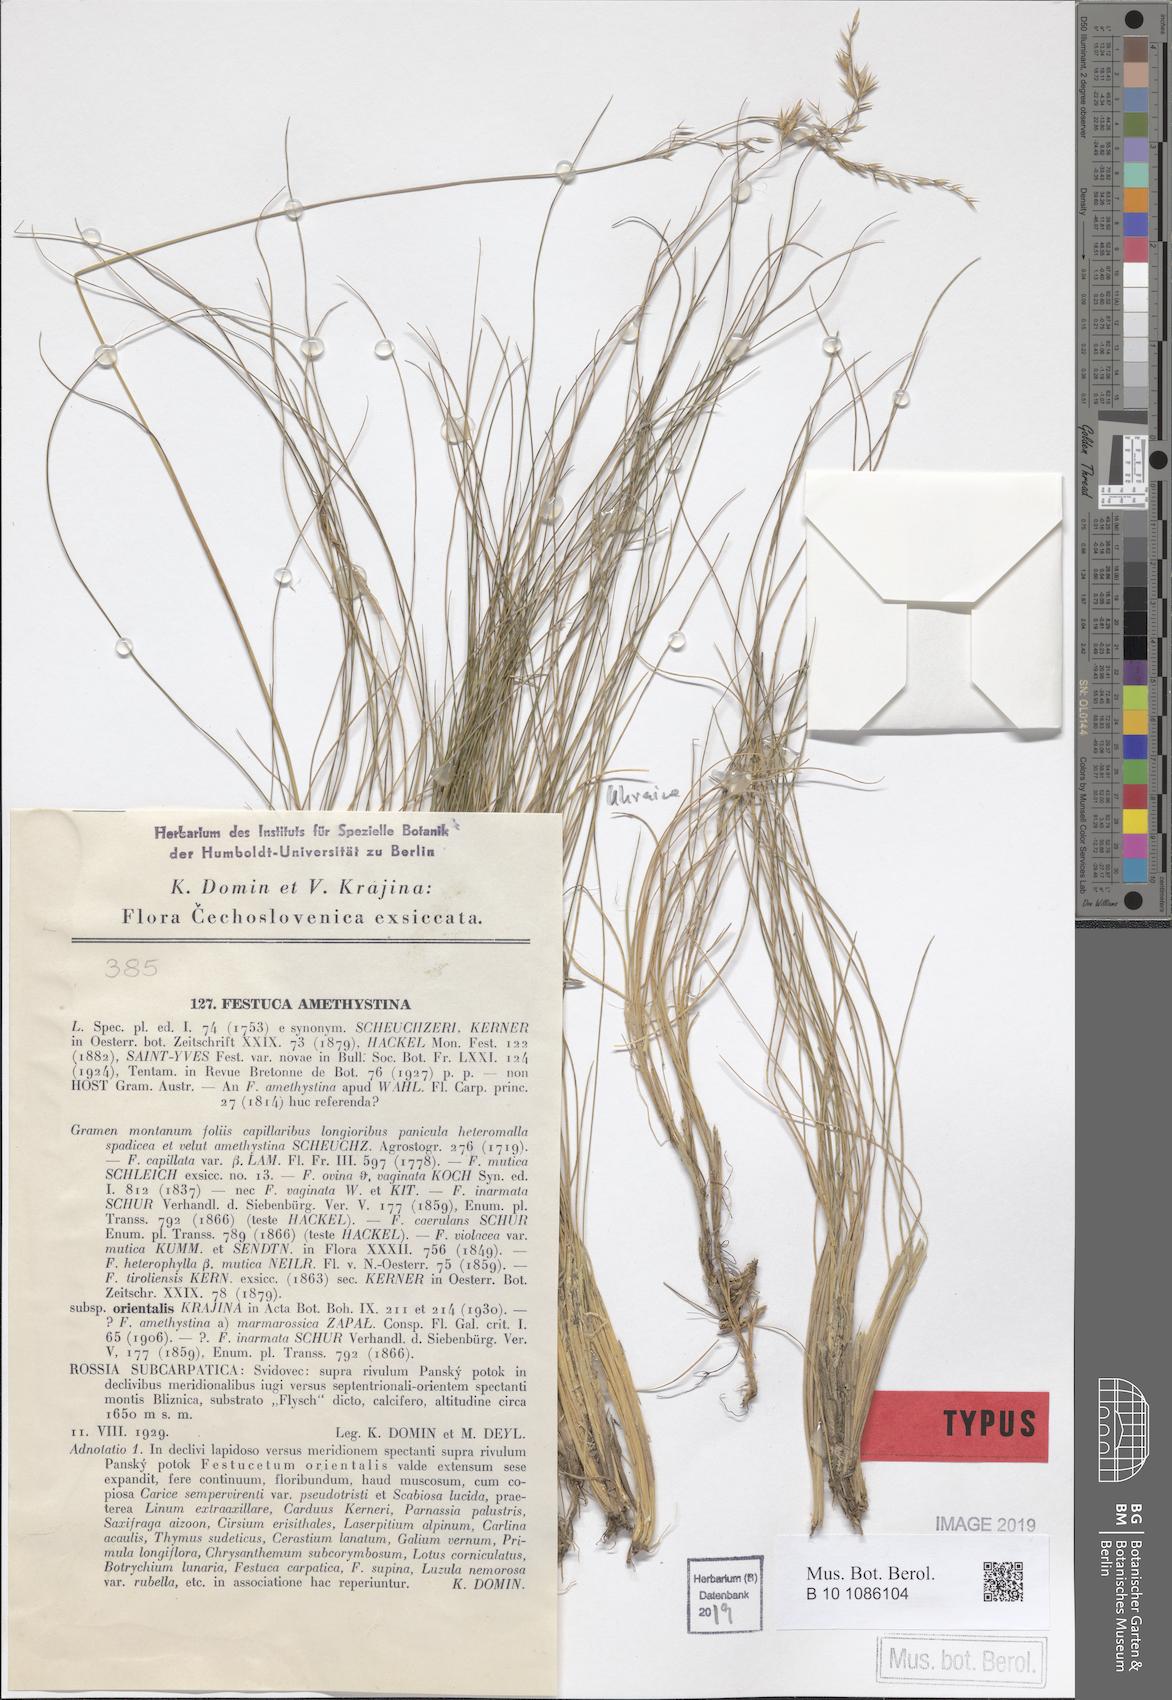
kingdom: Plantae
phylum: Tracheophyta
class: Liliopsida
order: Poales
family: Poaceae
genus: Festuca
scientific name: Festuca amethystina
